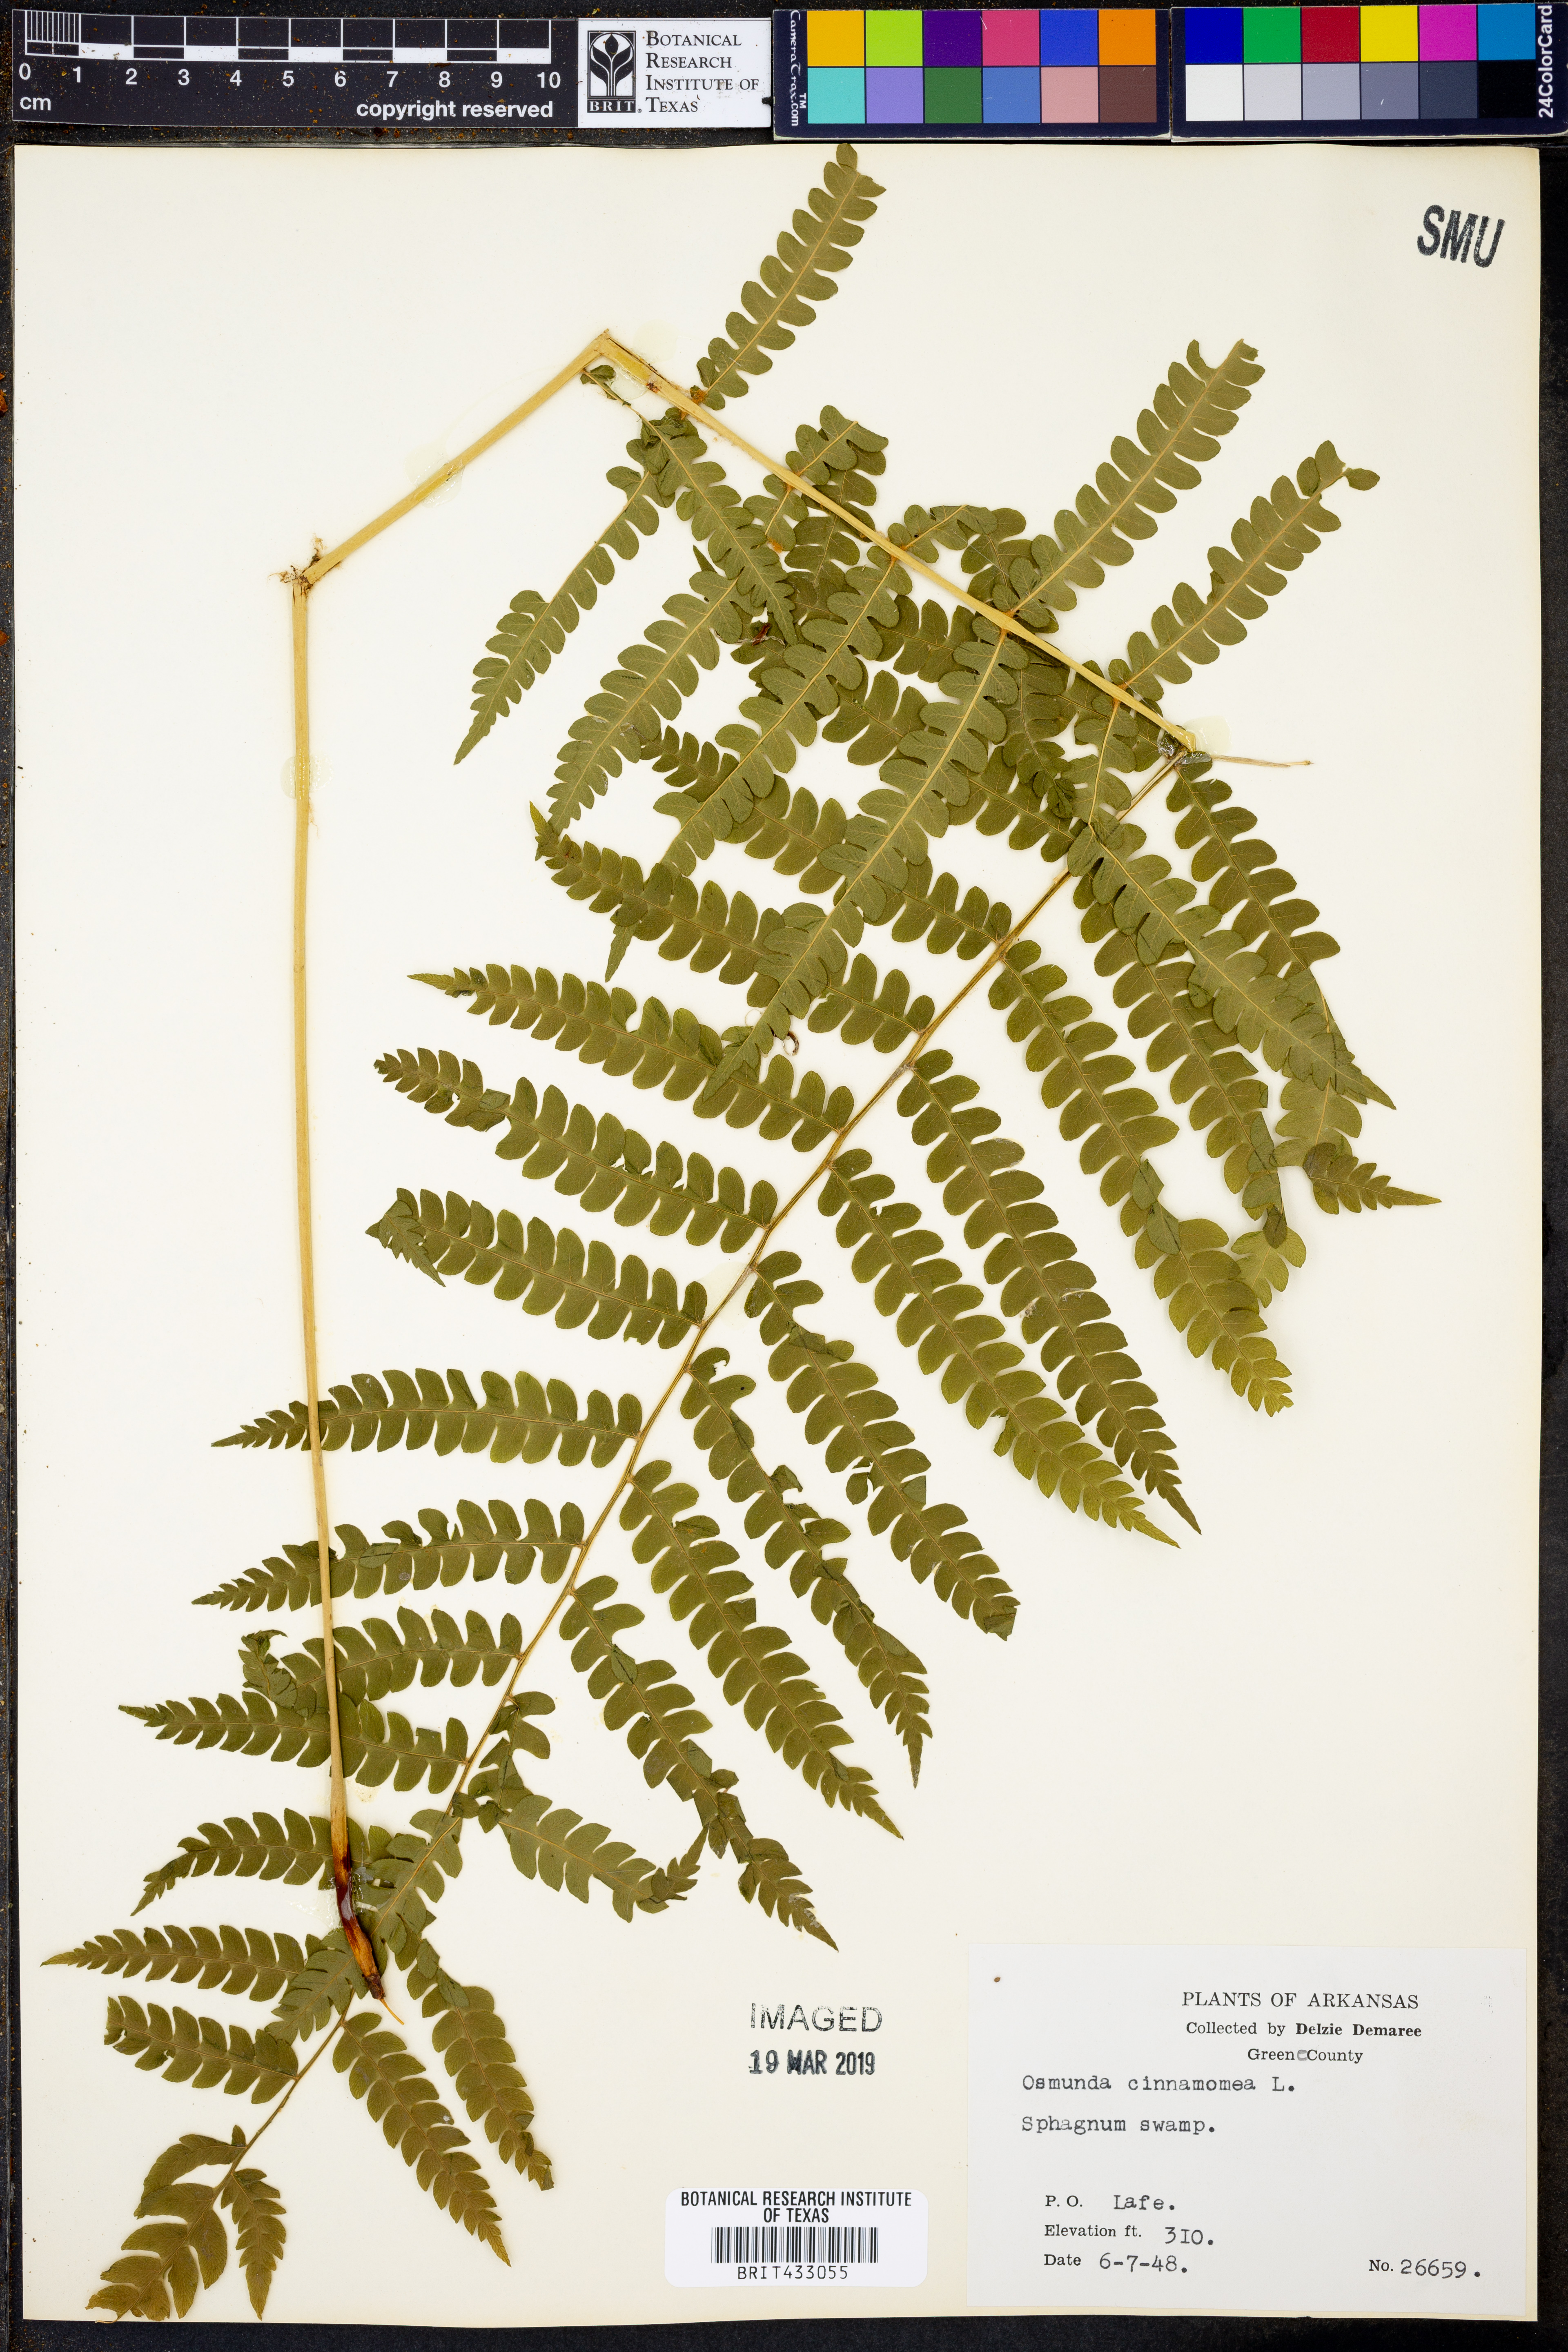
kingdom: Plantae
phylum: Tracheophyta
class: Polypodiopsida
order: Osmundales
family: Osmundaceae
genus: Osmundastrum
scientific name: Osmundastrum cinnamomeum
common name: Cinnamon fern
